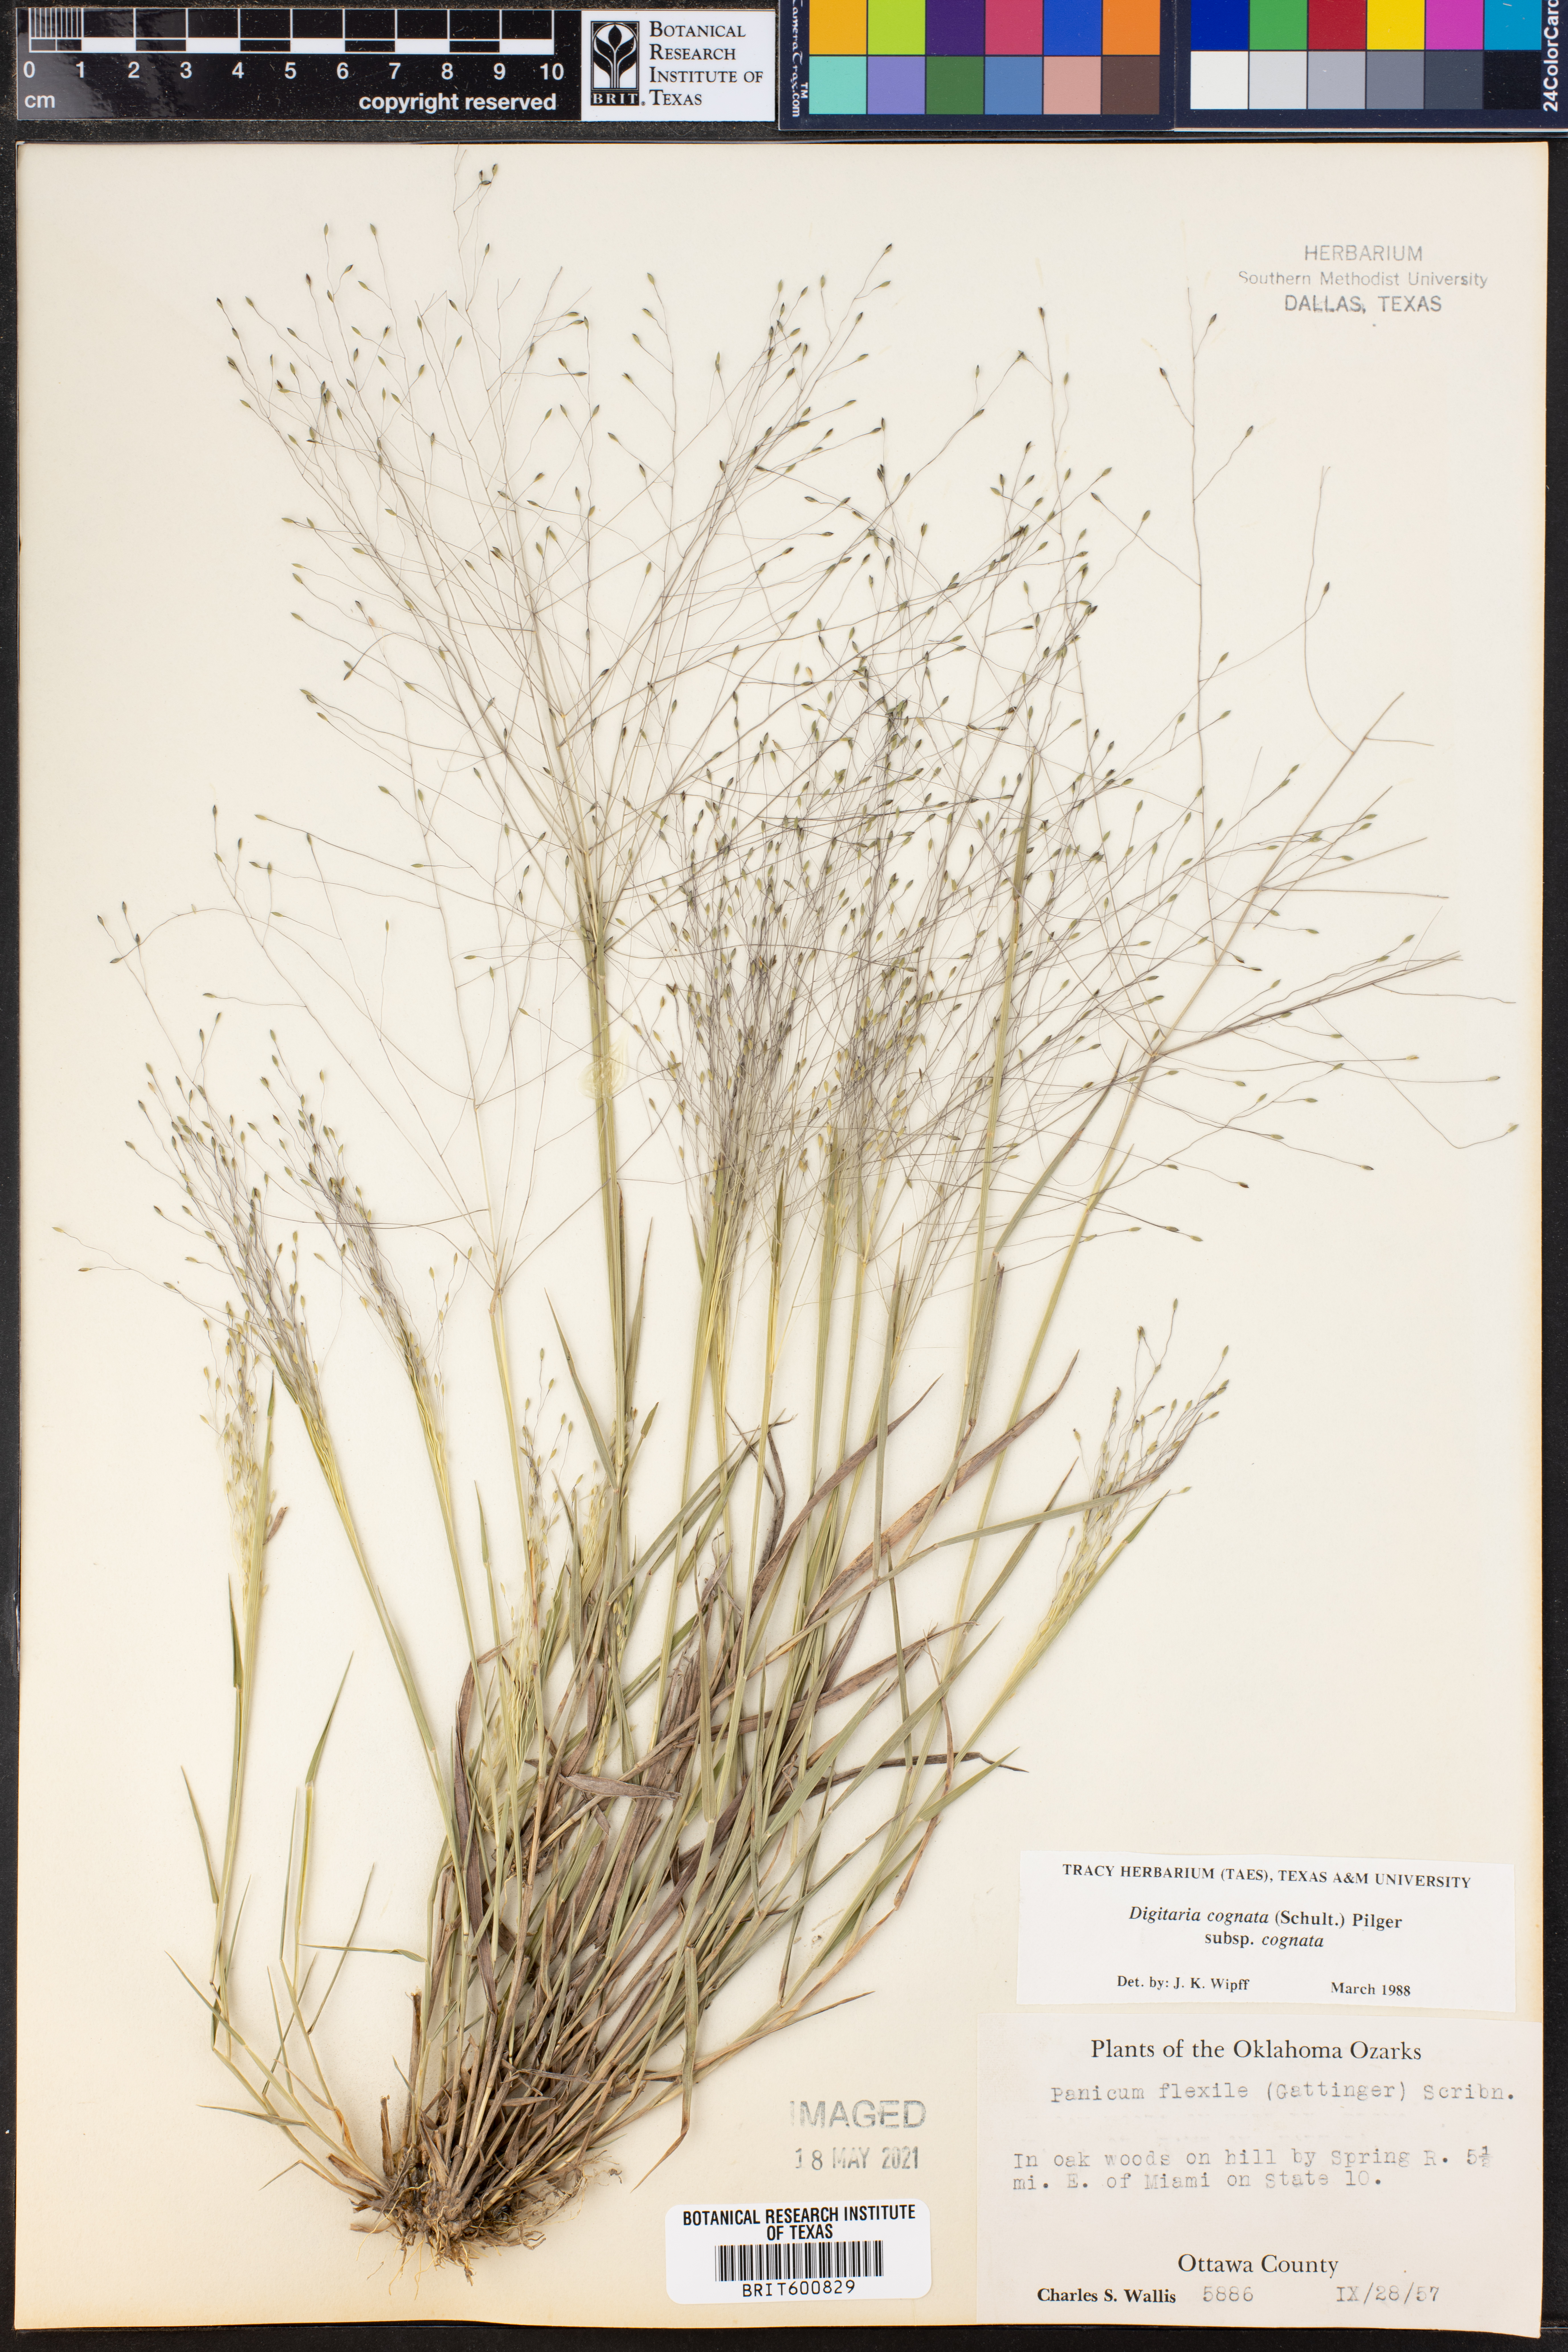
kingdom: Plantae
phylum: Tracheophyta
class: Liliopsida
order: Poales
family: Poaceae
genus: Digitaria
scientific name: Digitaria cognata
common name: Fall witchgrass
